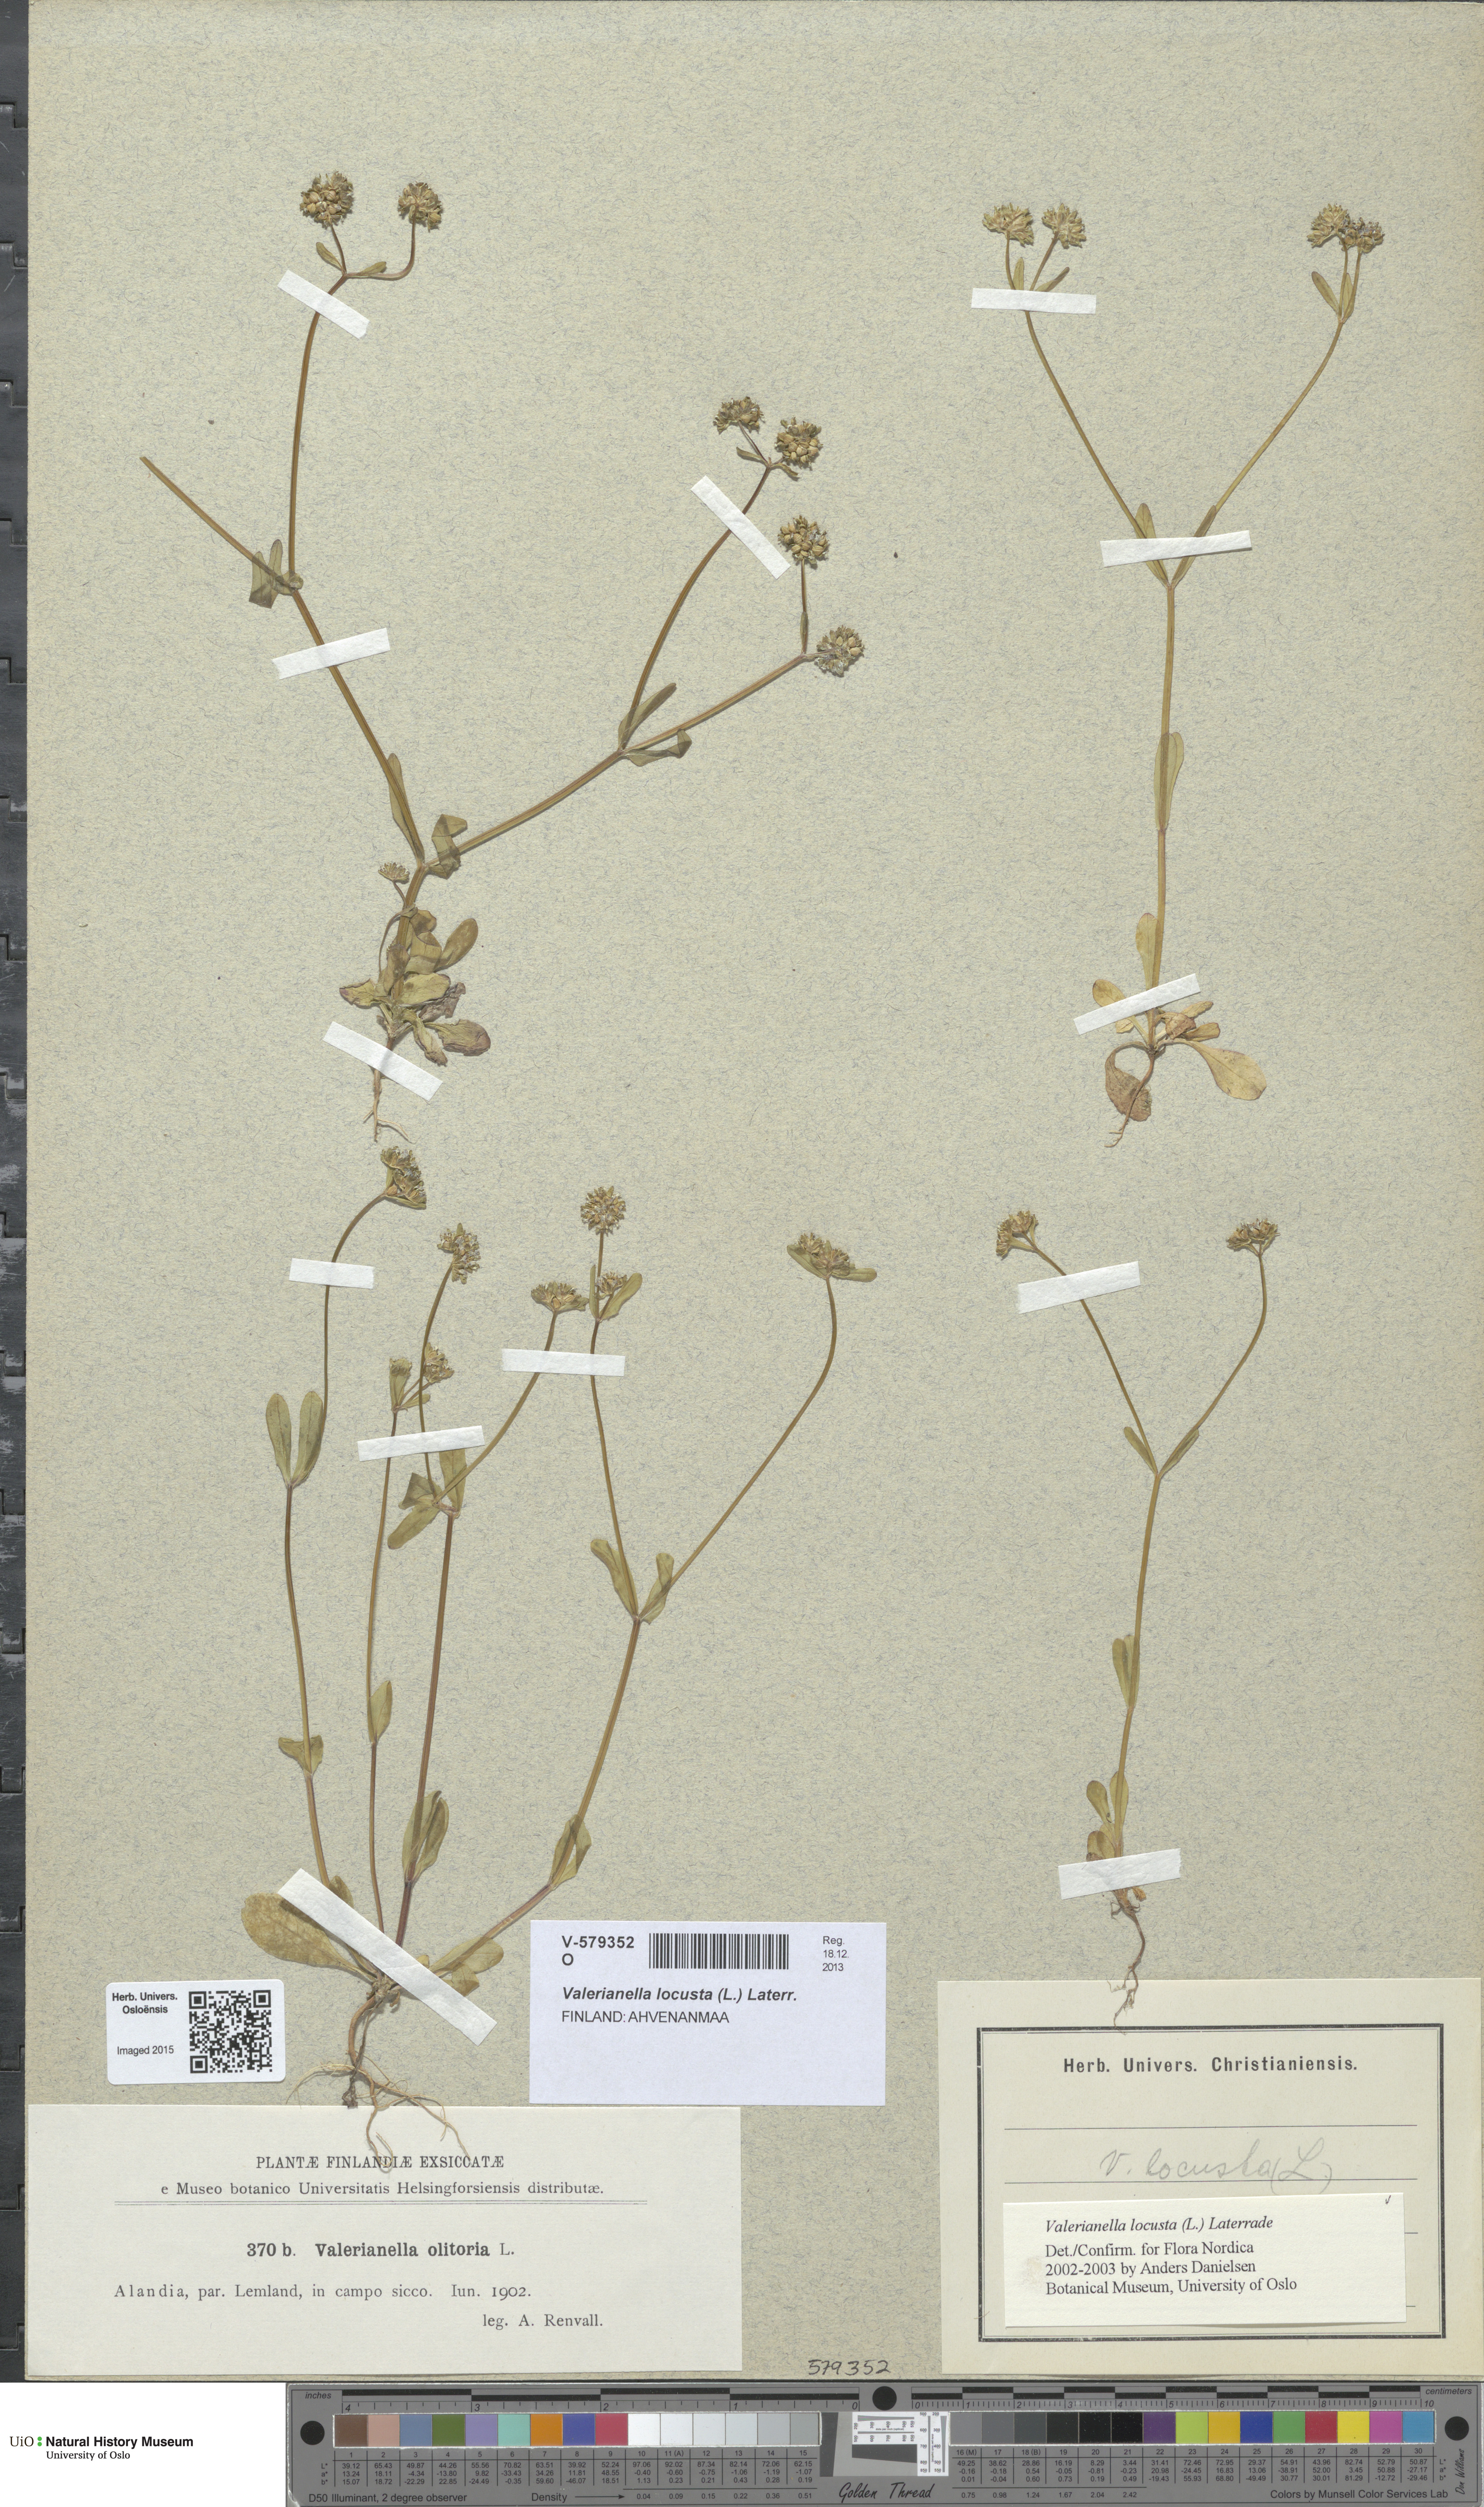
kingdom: Plantae
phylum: Tracheophyta
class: Magnoliopsida
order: Dipsacales
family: Caprifoliaceae
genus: Valerianella
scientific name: Valerianella locusta
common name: Common cornsalad
